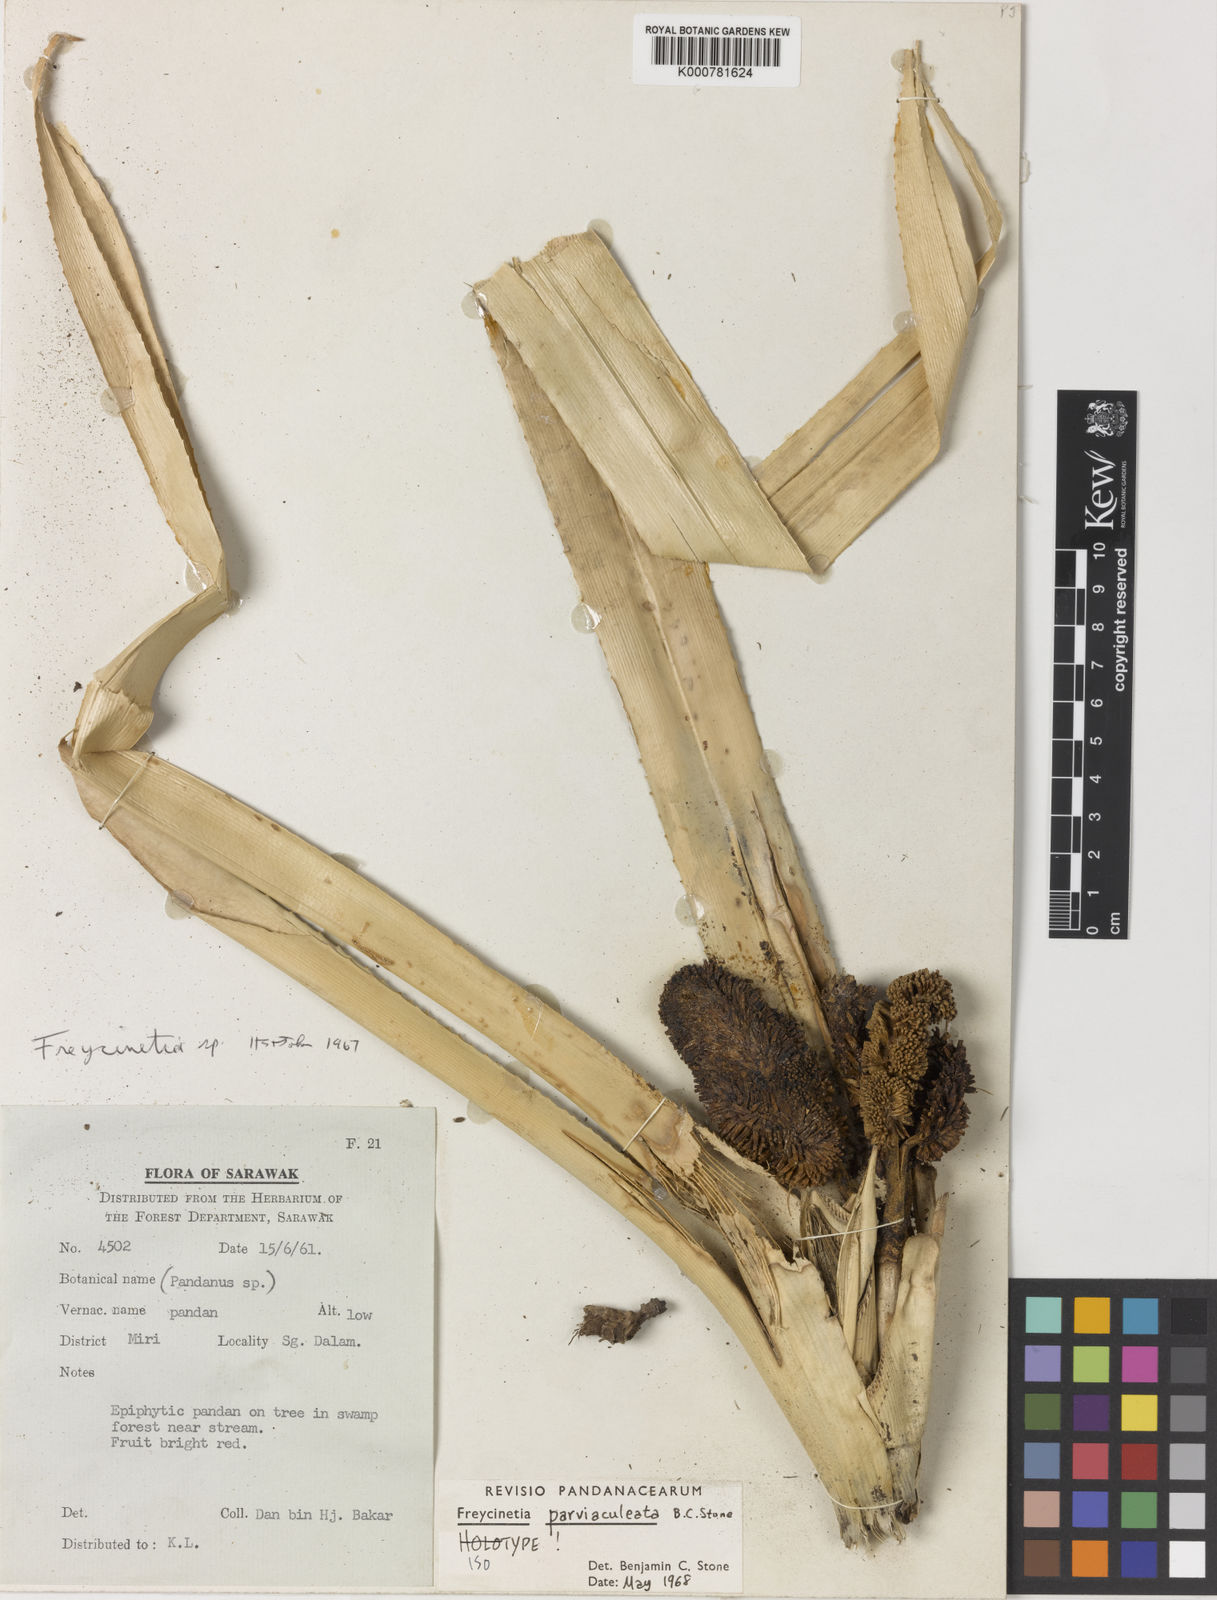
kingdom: Plantae
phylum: Tracheophyta
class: Liliopsida
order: Pandanales
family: Pandanaceae
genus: Freycinetia
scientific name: Freycinetia parviaculeata
